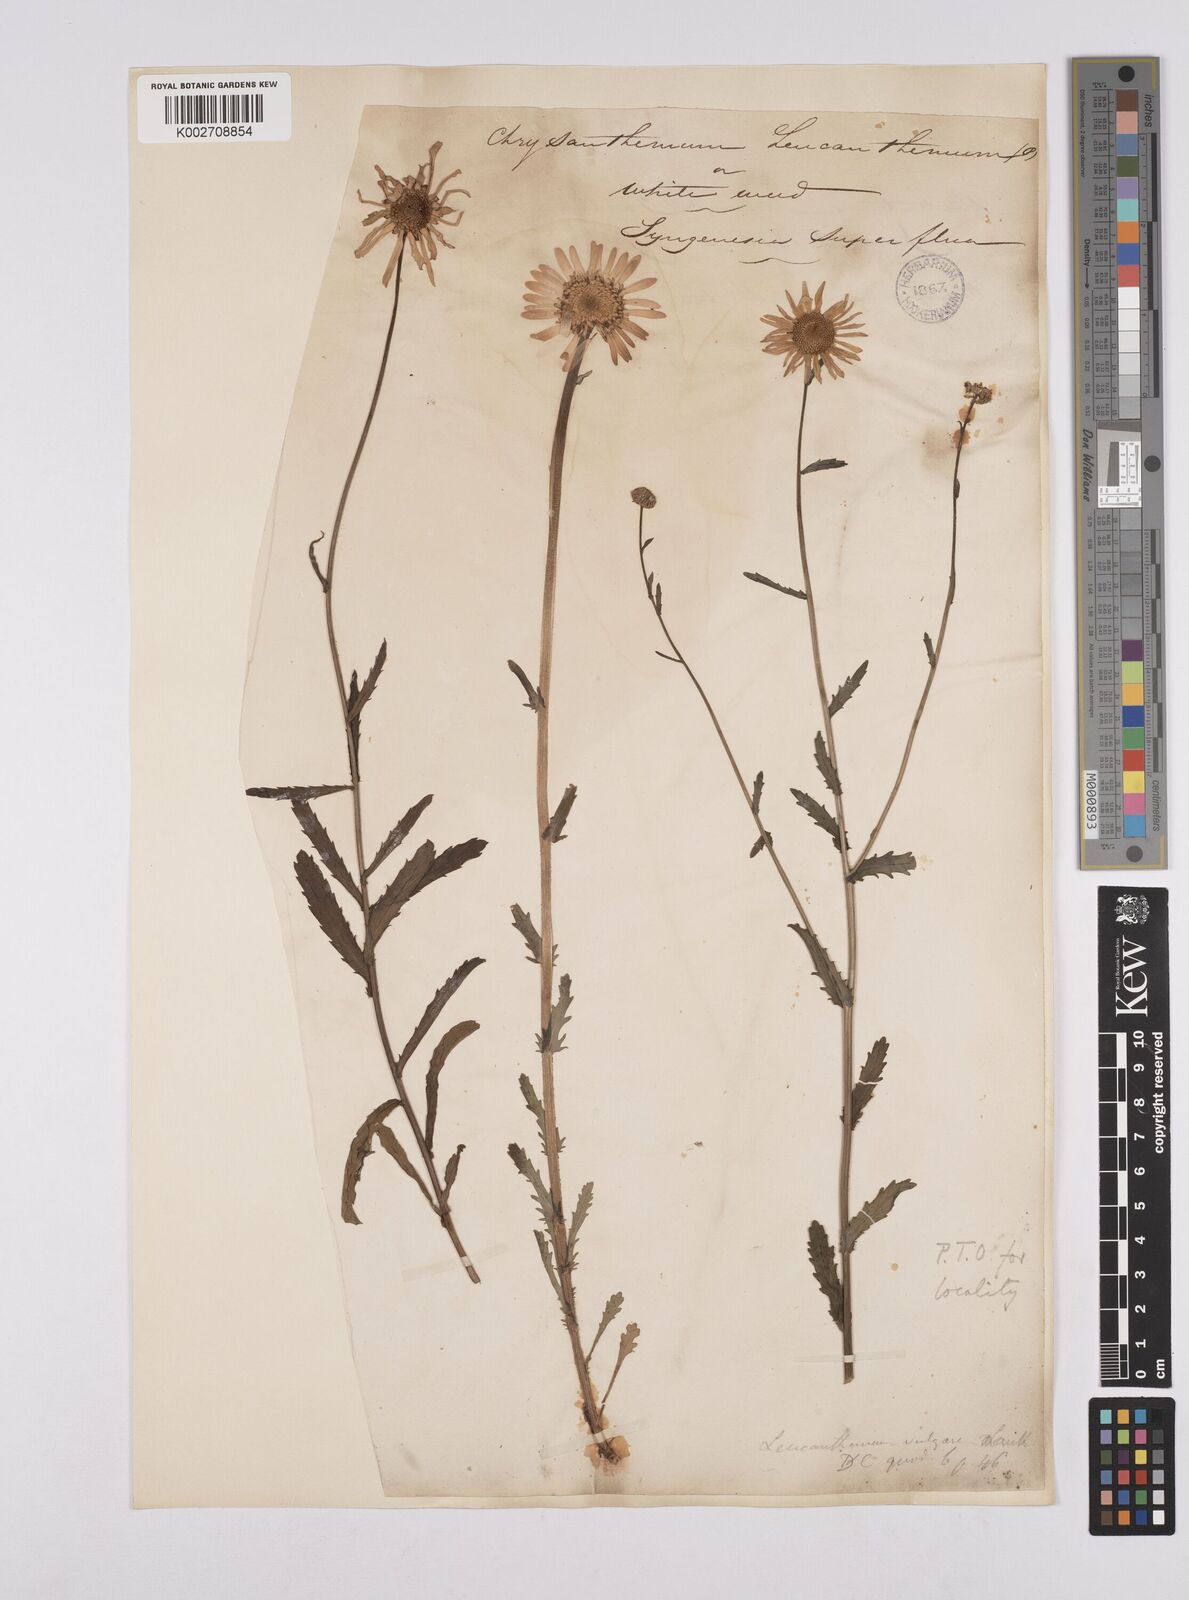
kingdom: Plantae
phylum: Tracheophyta
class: Magnoliopsida
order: Asterales
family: Asteraceae
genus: Leucanthemum
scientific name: Leucanthemum
